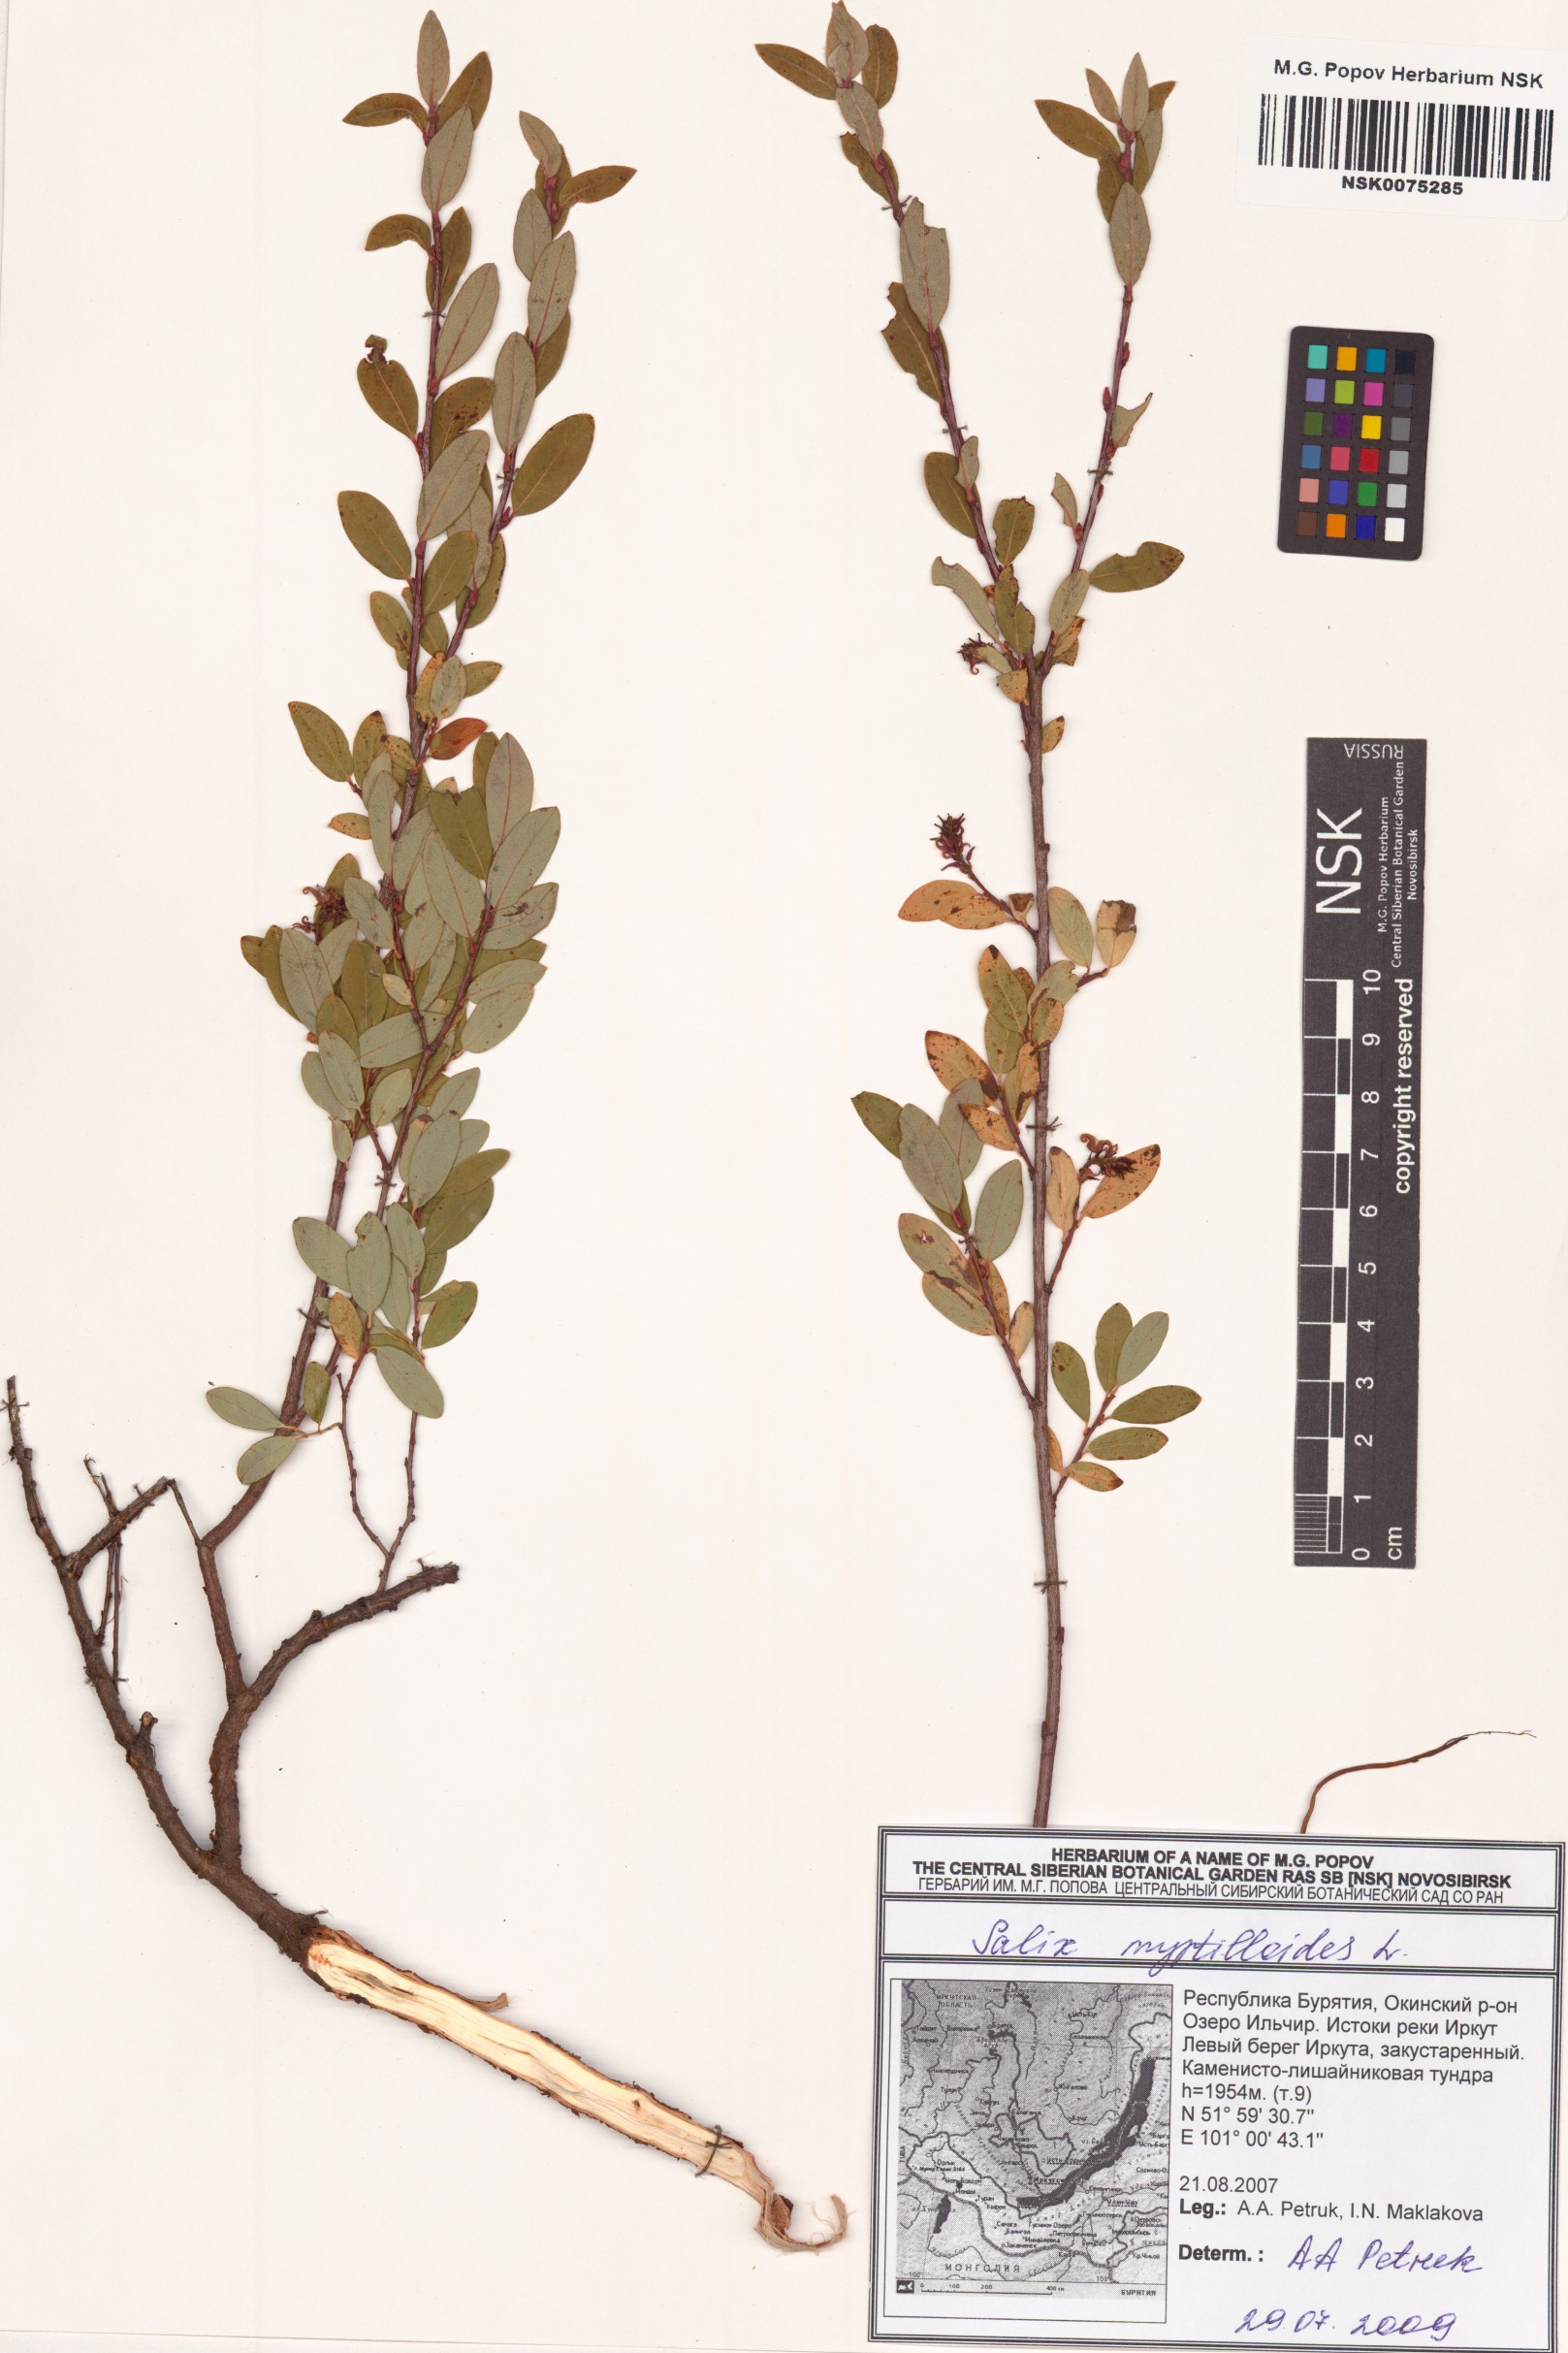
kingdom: Plantae
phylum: Tracheophyta
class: Magnoliopsida
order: Malpighiales
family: Salicaceae
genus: Salix
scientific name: Salix myrtilloides
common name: Myrtle-leaved willow
